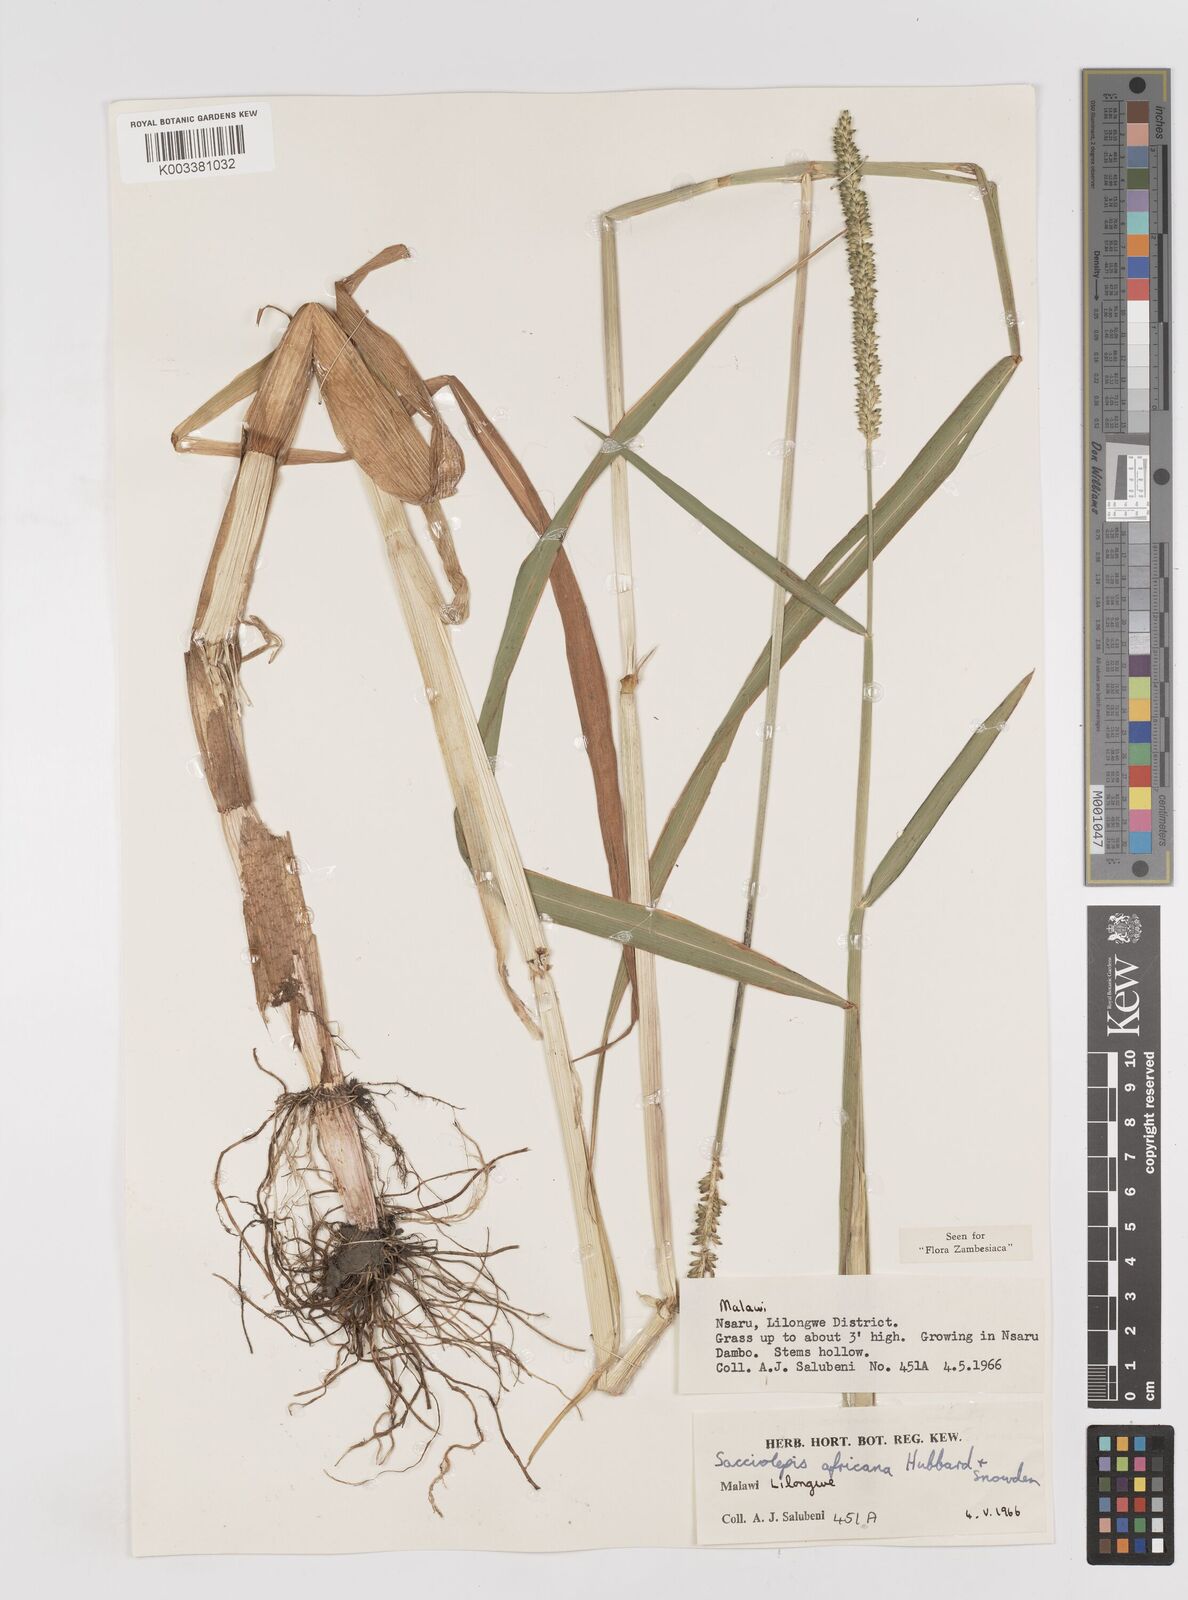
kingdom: Plantae
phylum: Tracheophyta
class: Liliopsida
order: Poales
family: Poaceae
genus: Sacciolepis
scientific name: Sacciolepis africana
